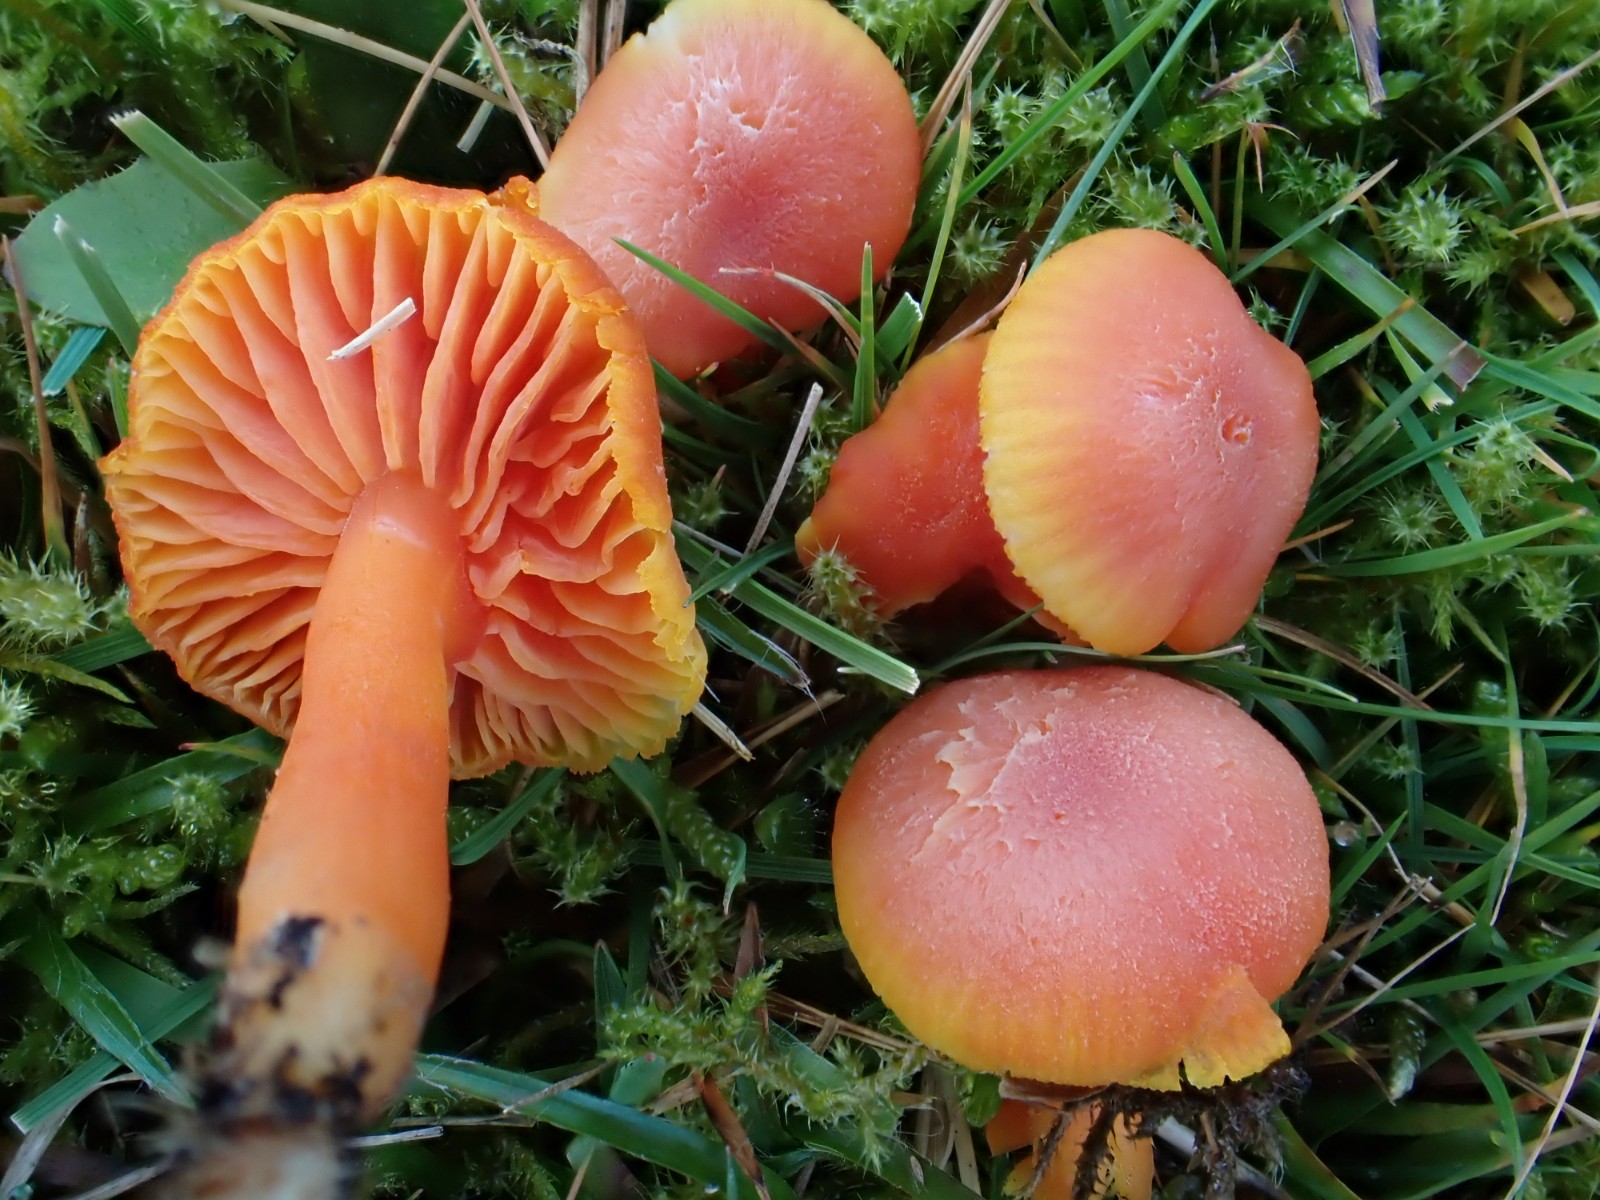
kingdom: Fungi
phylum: Basidiomycota
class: Agaricomycetes
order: Agaricales
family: Hygrophoraceae
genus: Hygrocybe
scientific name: Hygrocybe miniata
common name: mønje-vokshat
